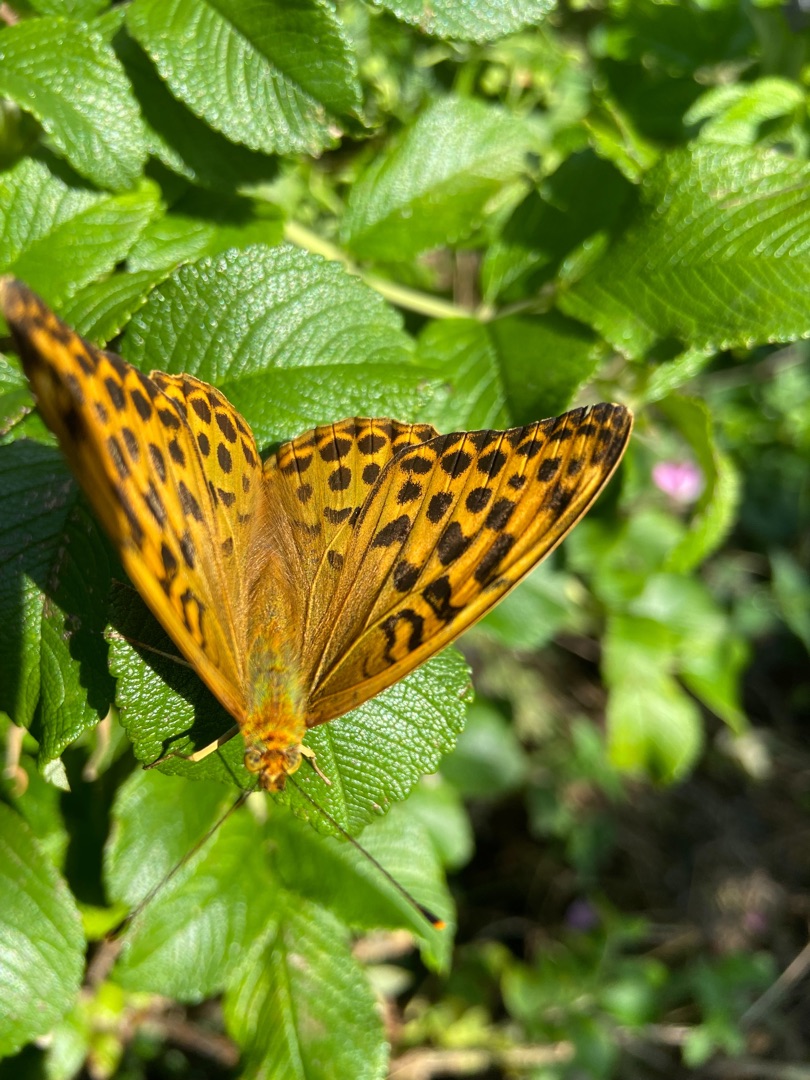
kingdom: Animalia
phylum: Arthropoda
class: Insecta
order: Lepidoptera
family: Nymphalidae
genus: Argynnis
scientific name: Argynnis paphia
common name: Kejserkåbe
